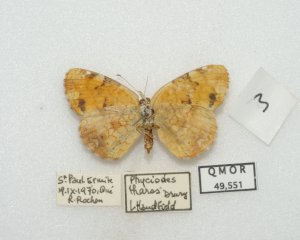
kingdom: Animalia
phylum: Arthropoda
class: Insecta
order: Lepidoptera
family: Nymphalidae
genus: Phyciodes
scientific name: Phyciodes tharos
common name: Northern Crescent
